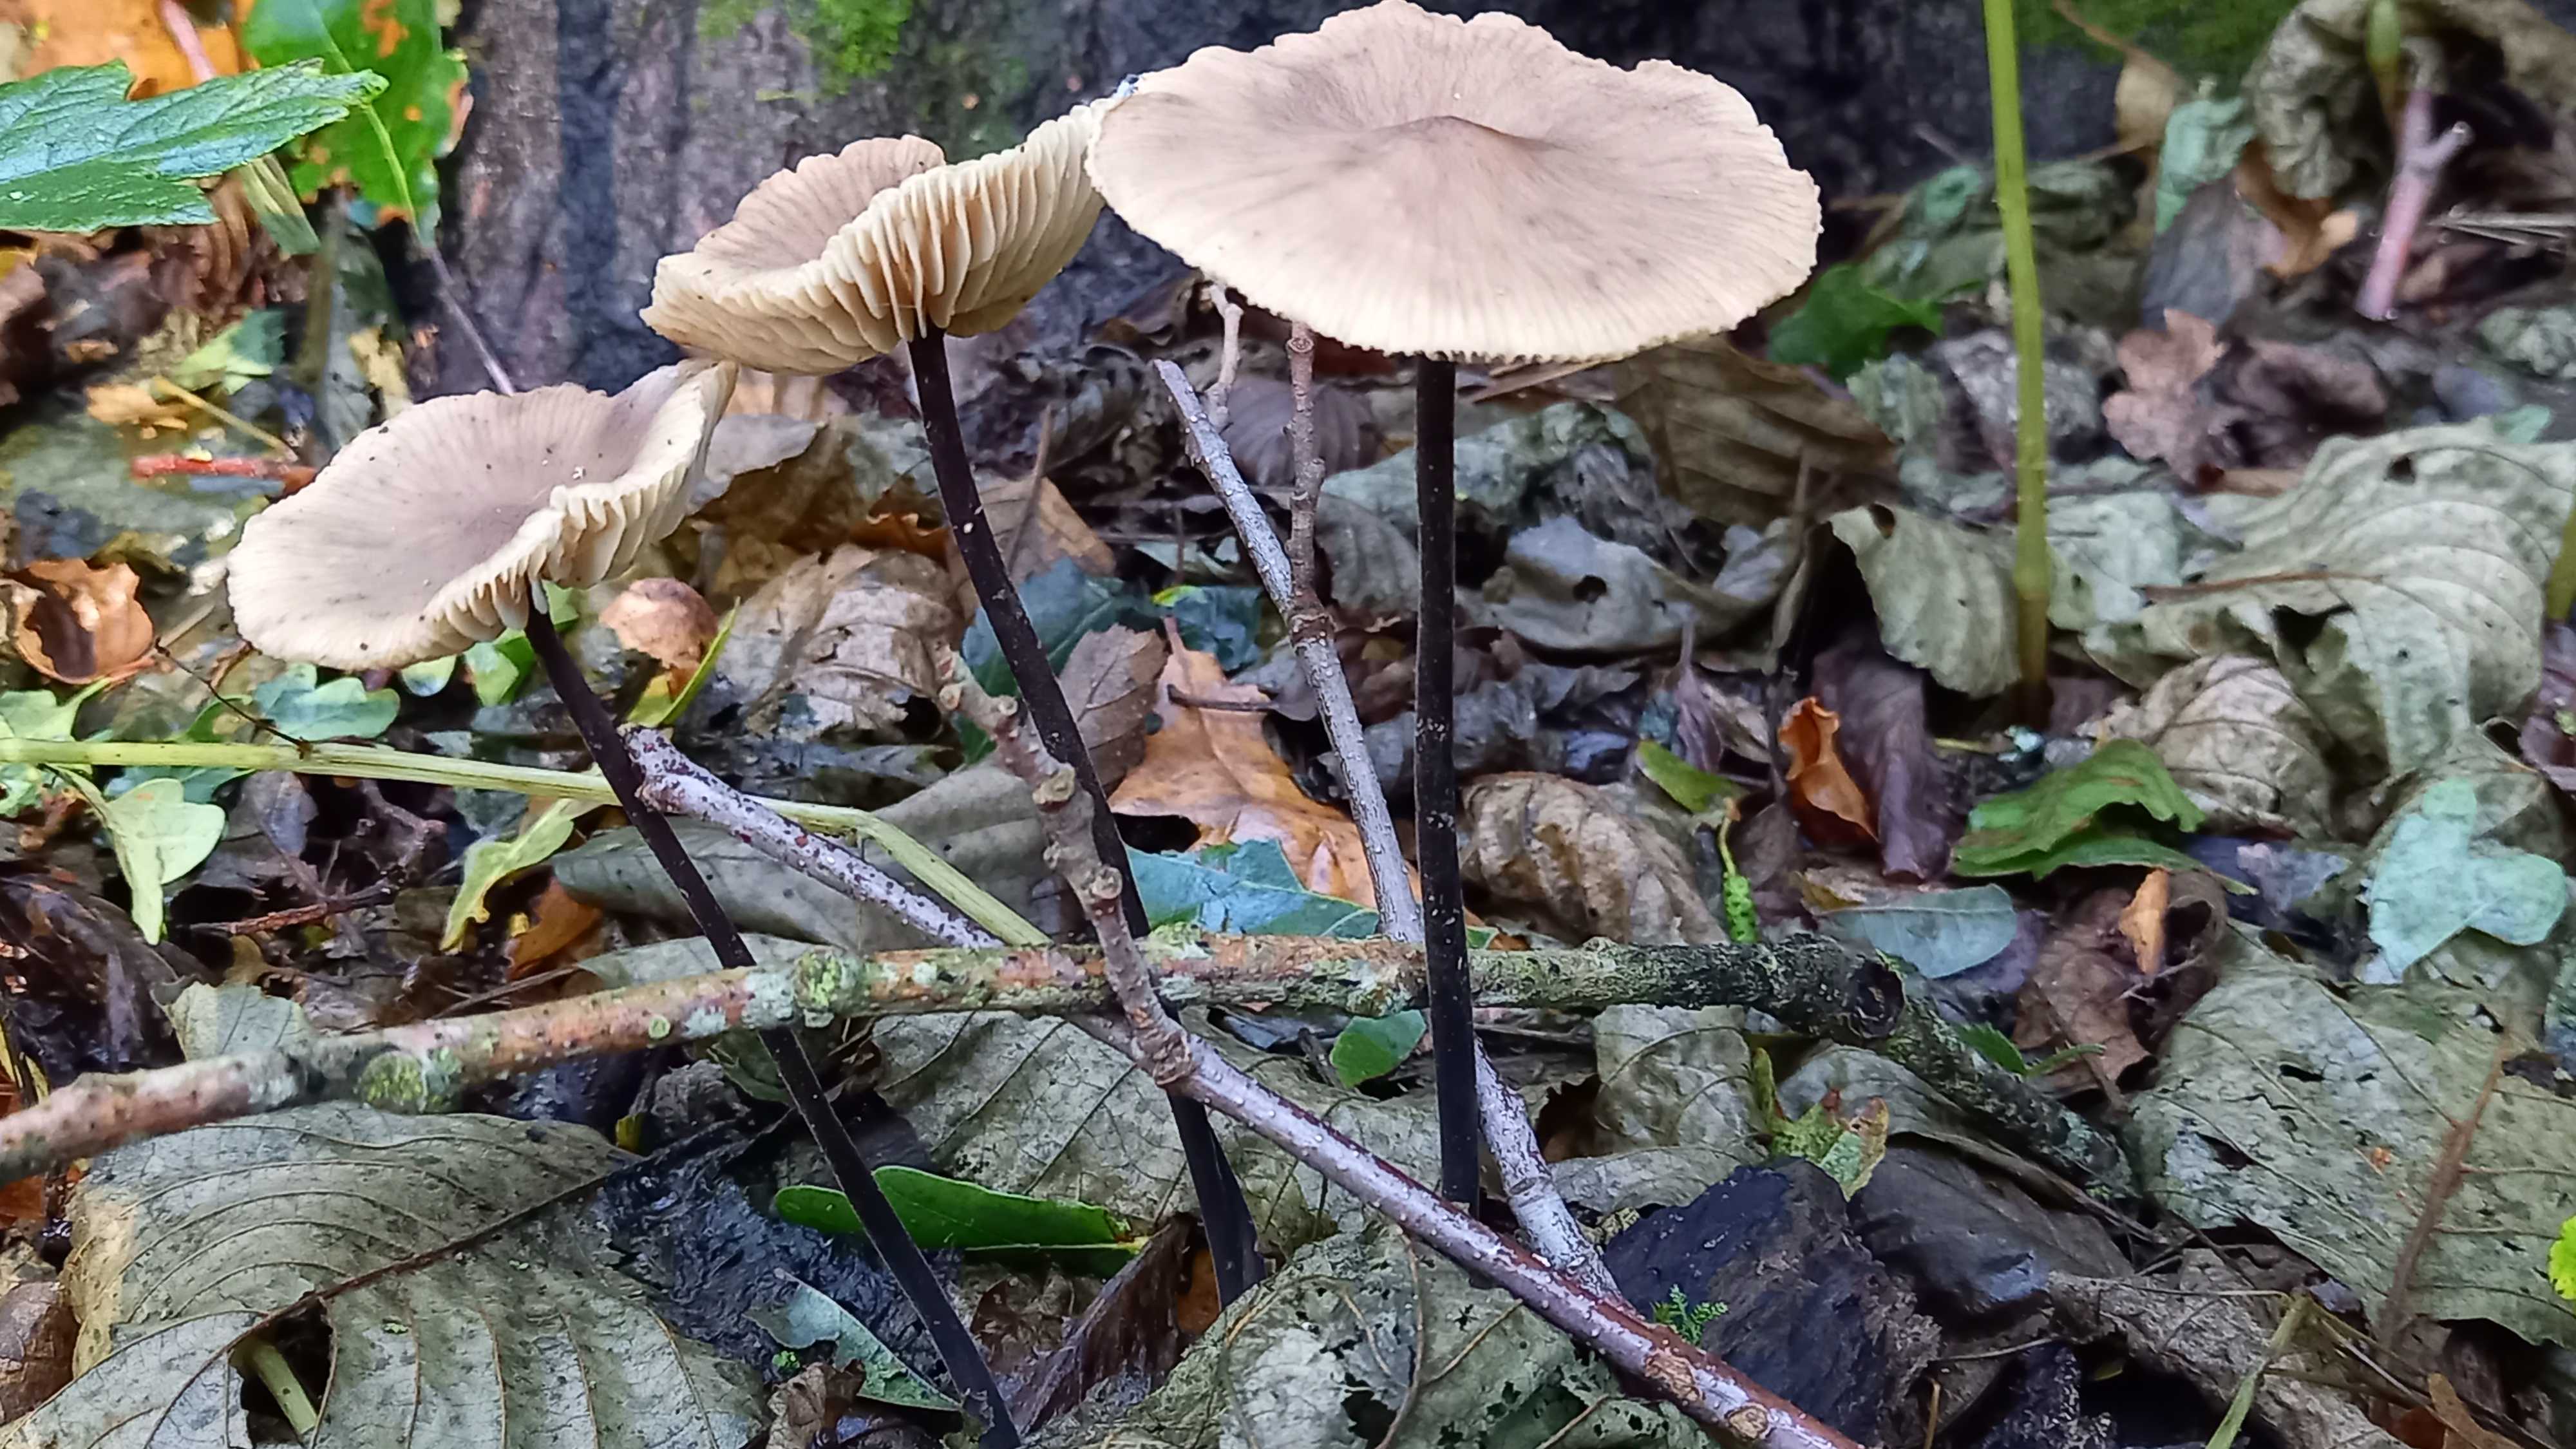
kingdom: Fungi
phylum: Basidiomycota
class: Agaricomycetes
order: Agaricales
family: Omphalotaceae
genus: Mycetinis
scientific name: Mycetinis alliaceus
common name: stor løghat
